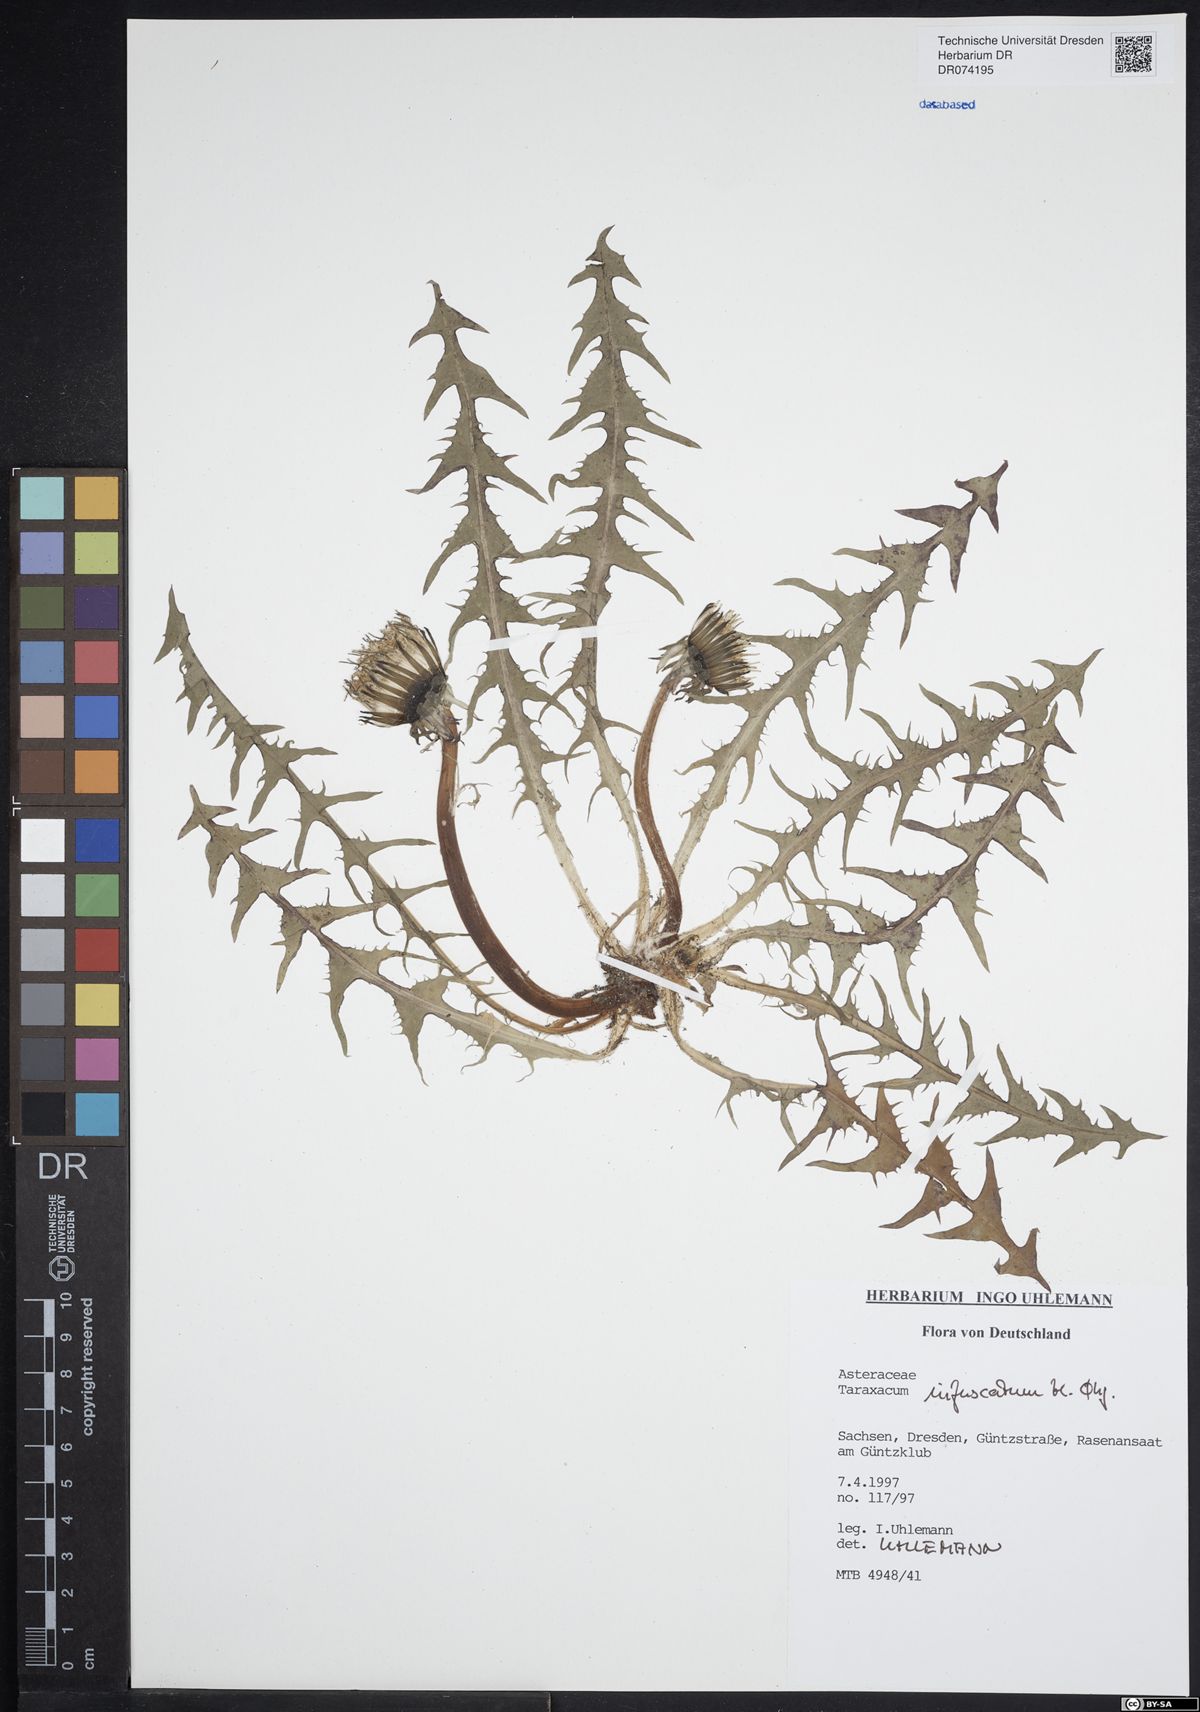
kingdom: Plantae
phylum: Tracheophyta
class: Magnoliopsida
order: Asterales
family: Asteraceae
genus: Taraxacum
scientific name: Taraxacum infuscatum
